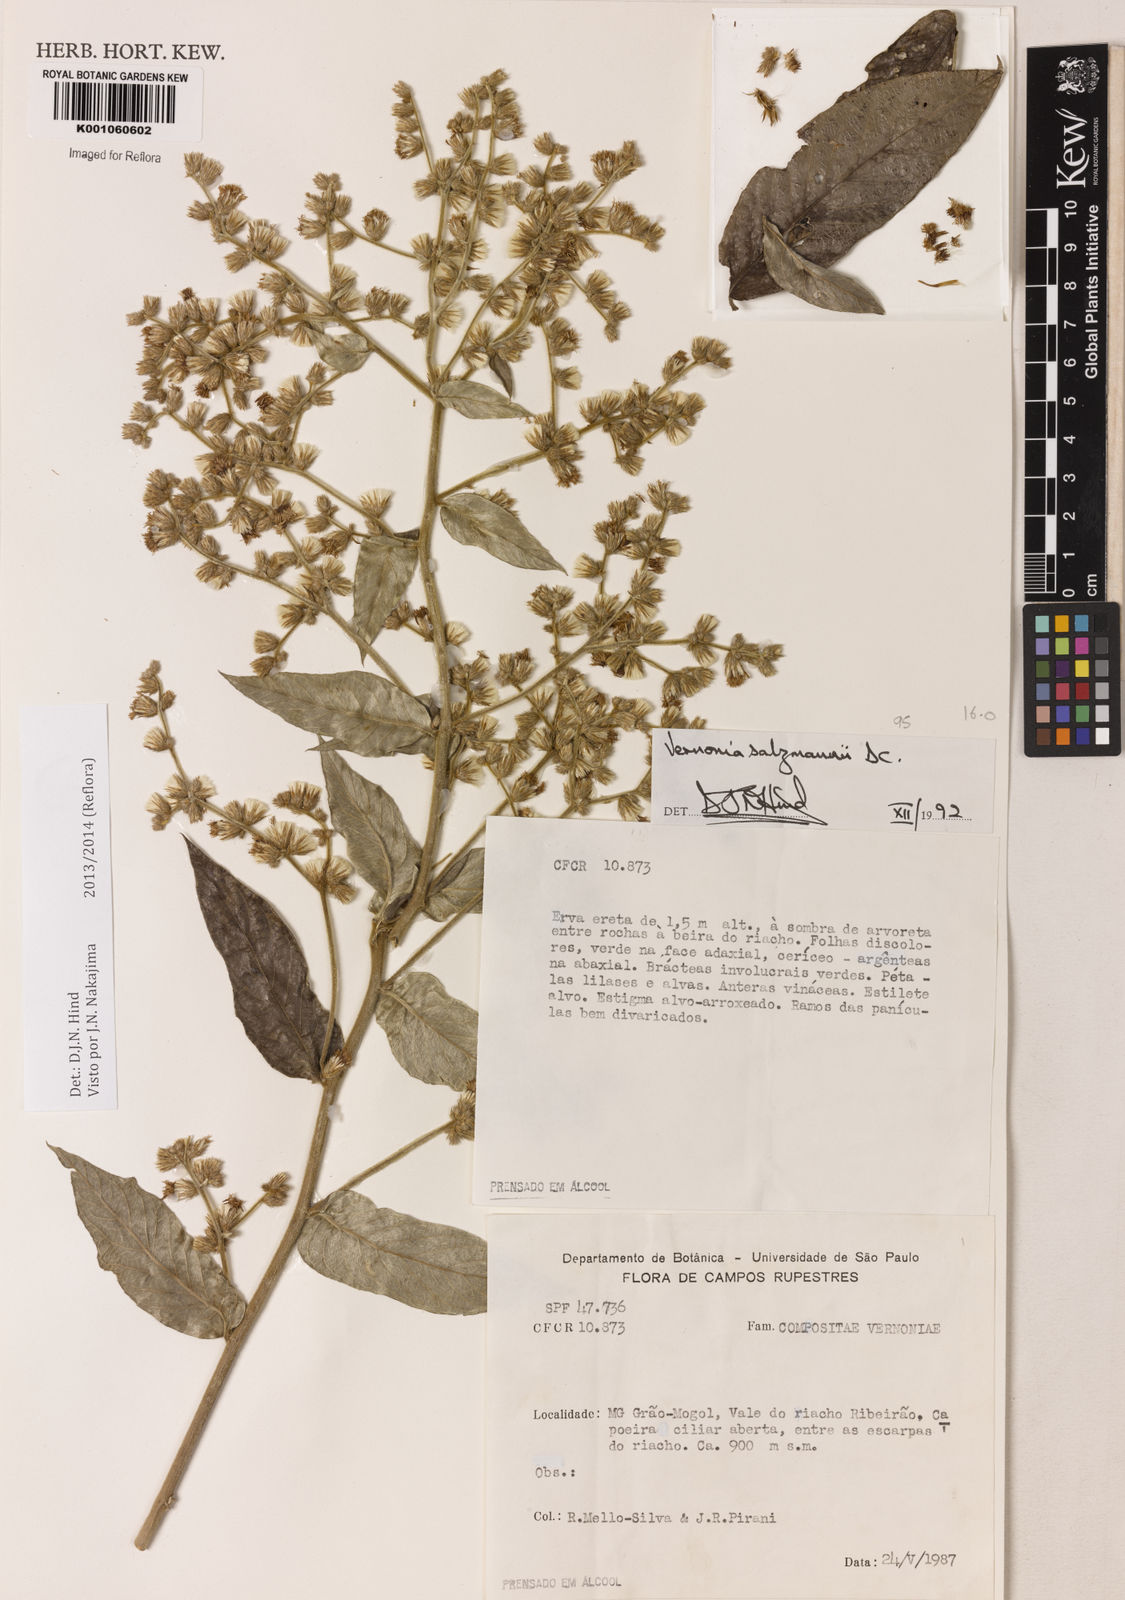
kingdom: Plantae
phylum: Tracheophyta
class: Magnoliopsida
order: Asterales
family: Asteraceae
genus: Lepidaploa
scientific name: Lepidaploa salzmannii
